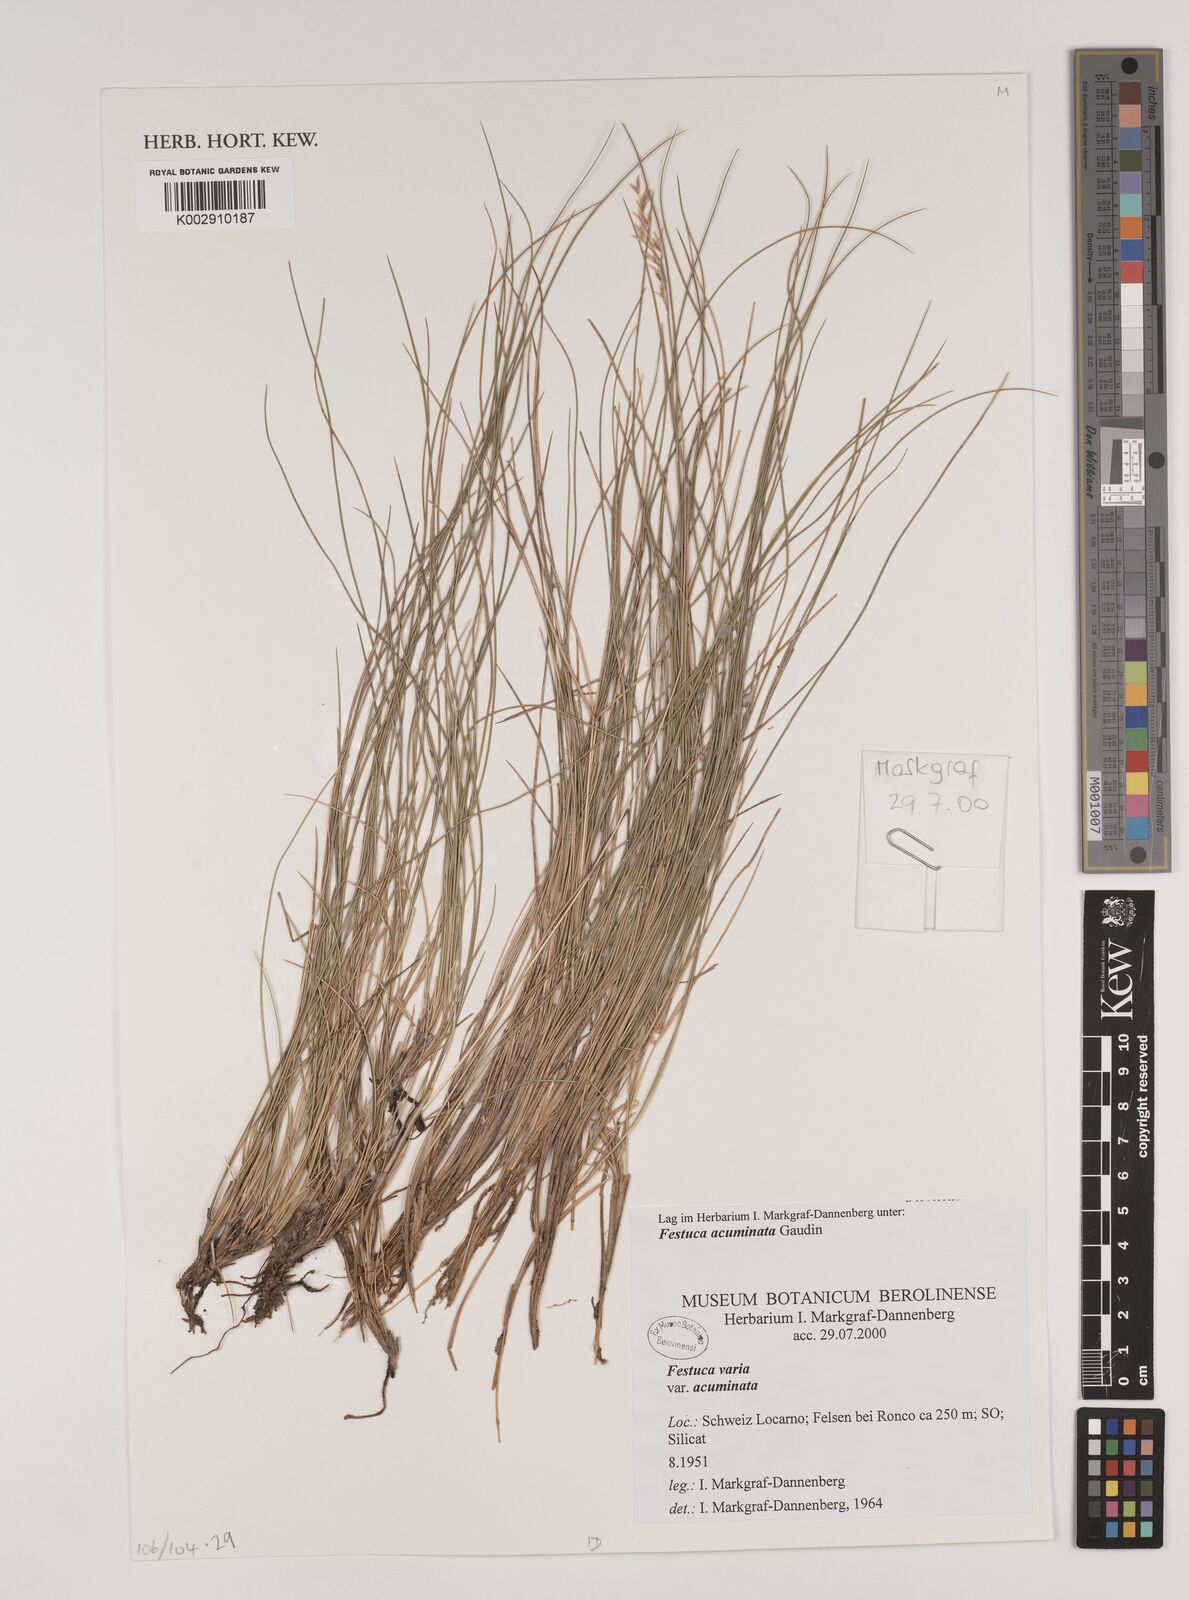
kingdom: Plantae
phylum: Tracheophyta
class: Liliopsida
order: Poales
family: Poaceae
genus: Festuca
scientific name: Festuca acuminata
